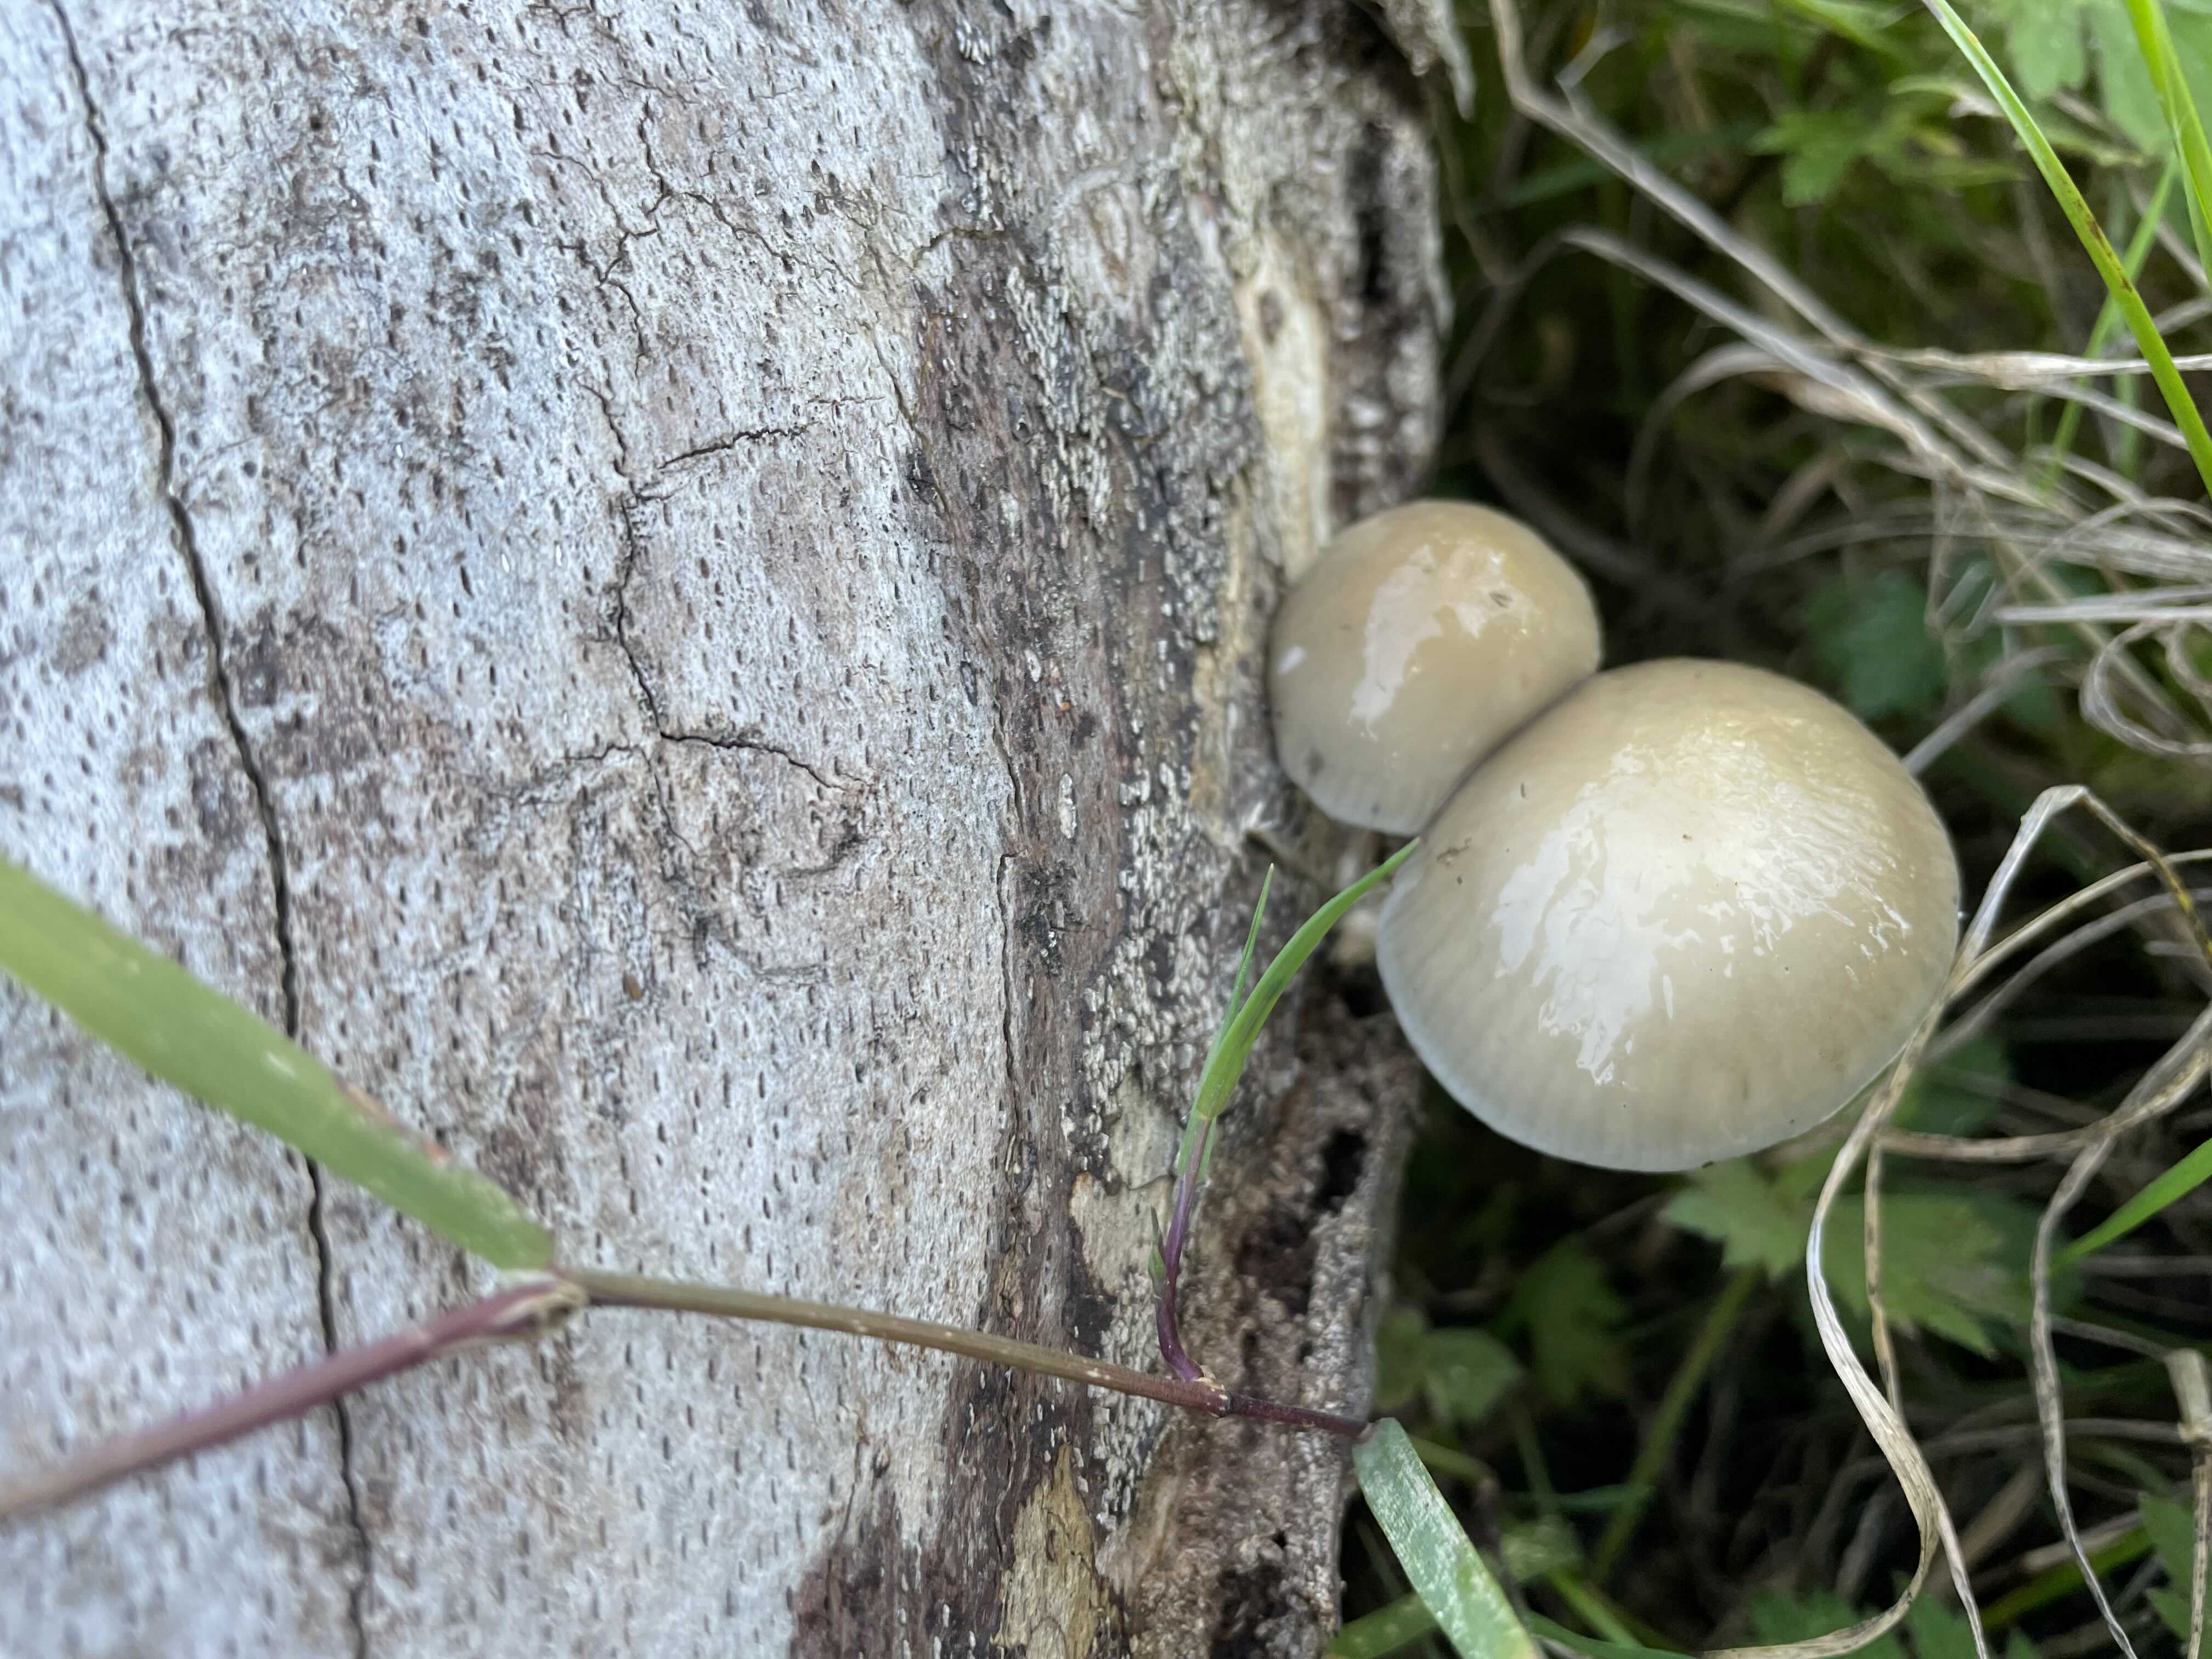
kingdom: Fungi
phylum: Basidiomycota
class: Agaricomycetes
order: Agaricales
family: Physalacriaceae
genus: Mucidula
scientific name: Mucidula mucida
